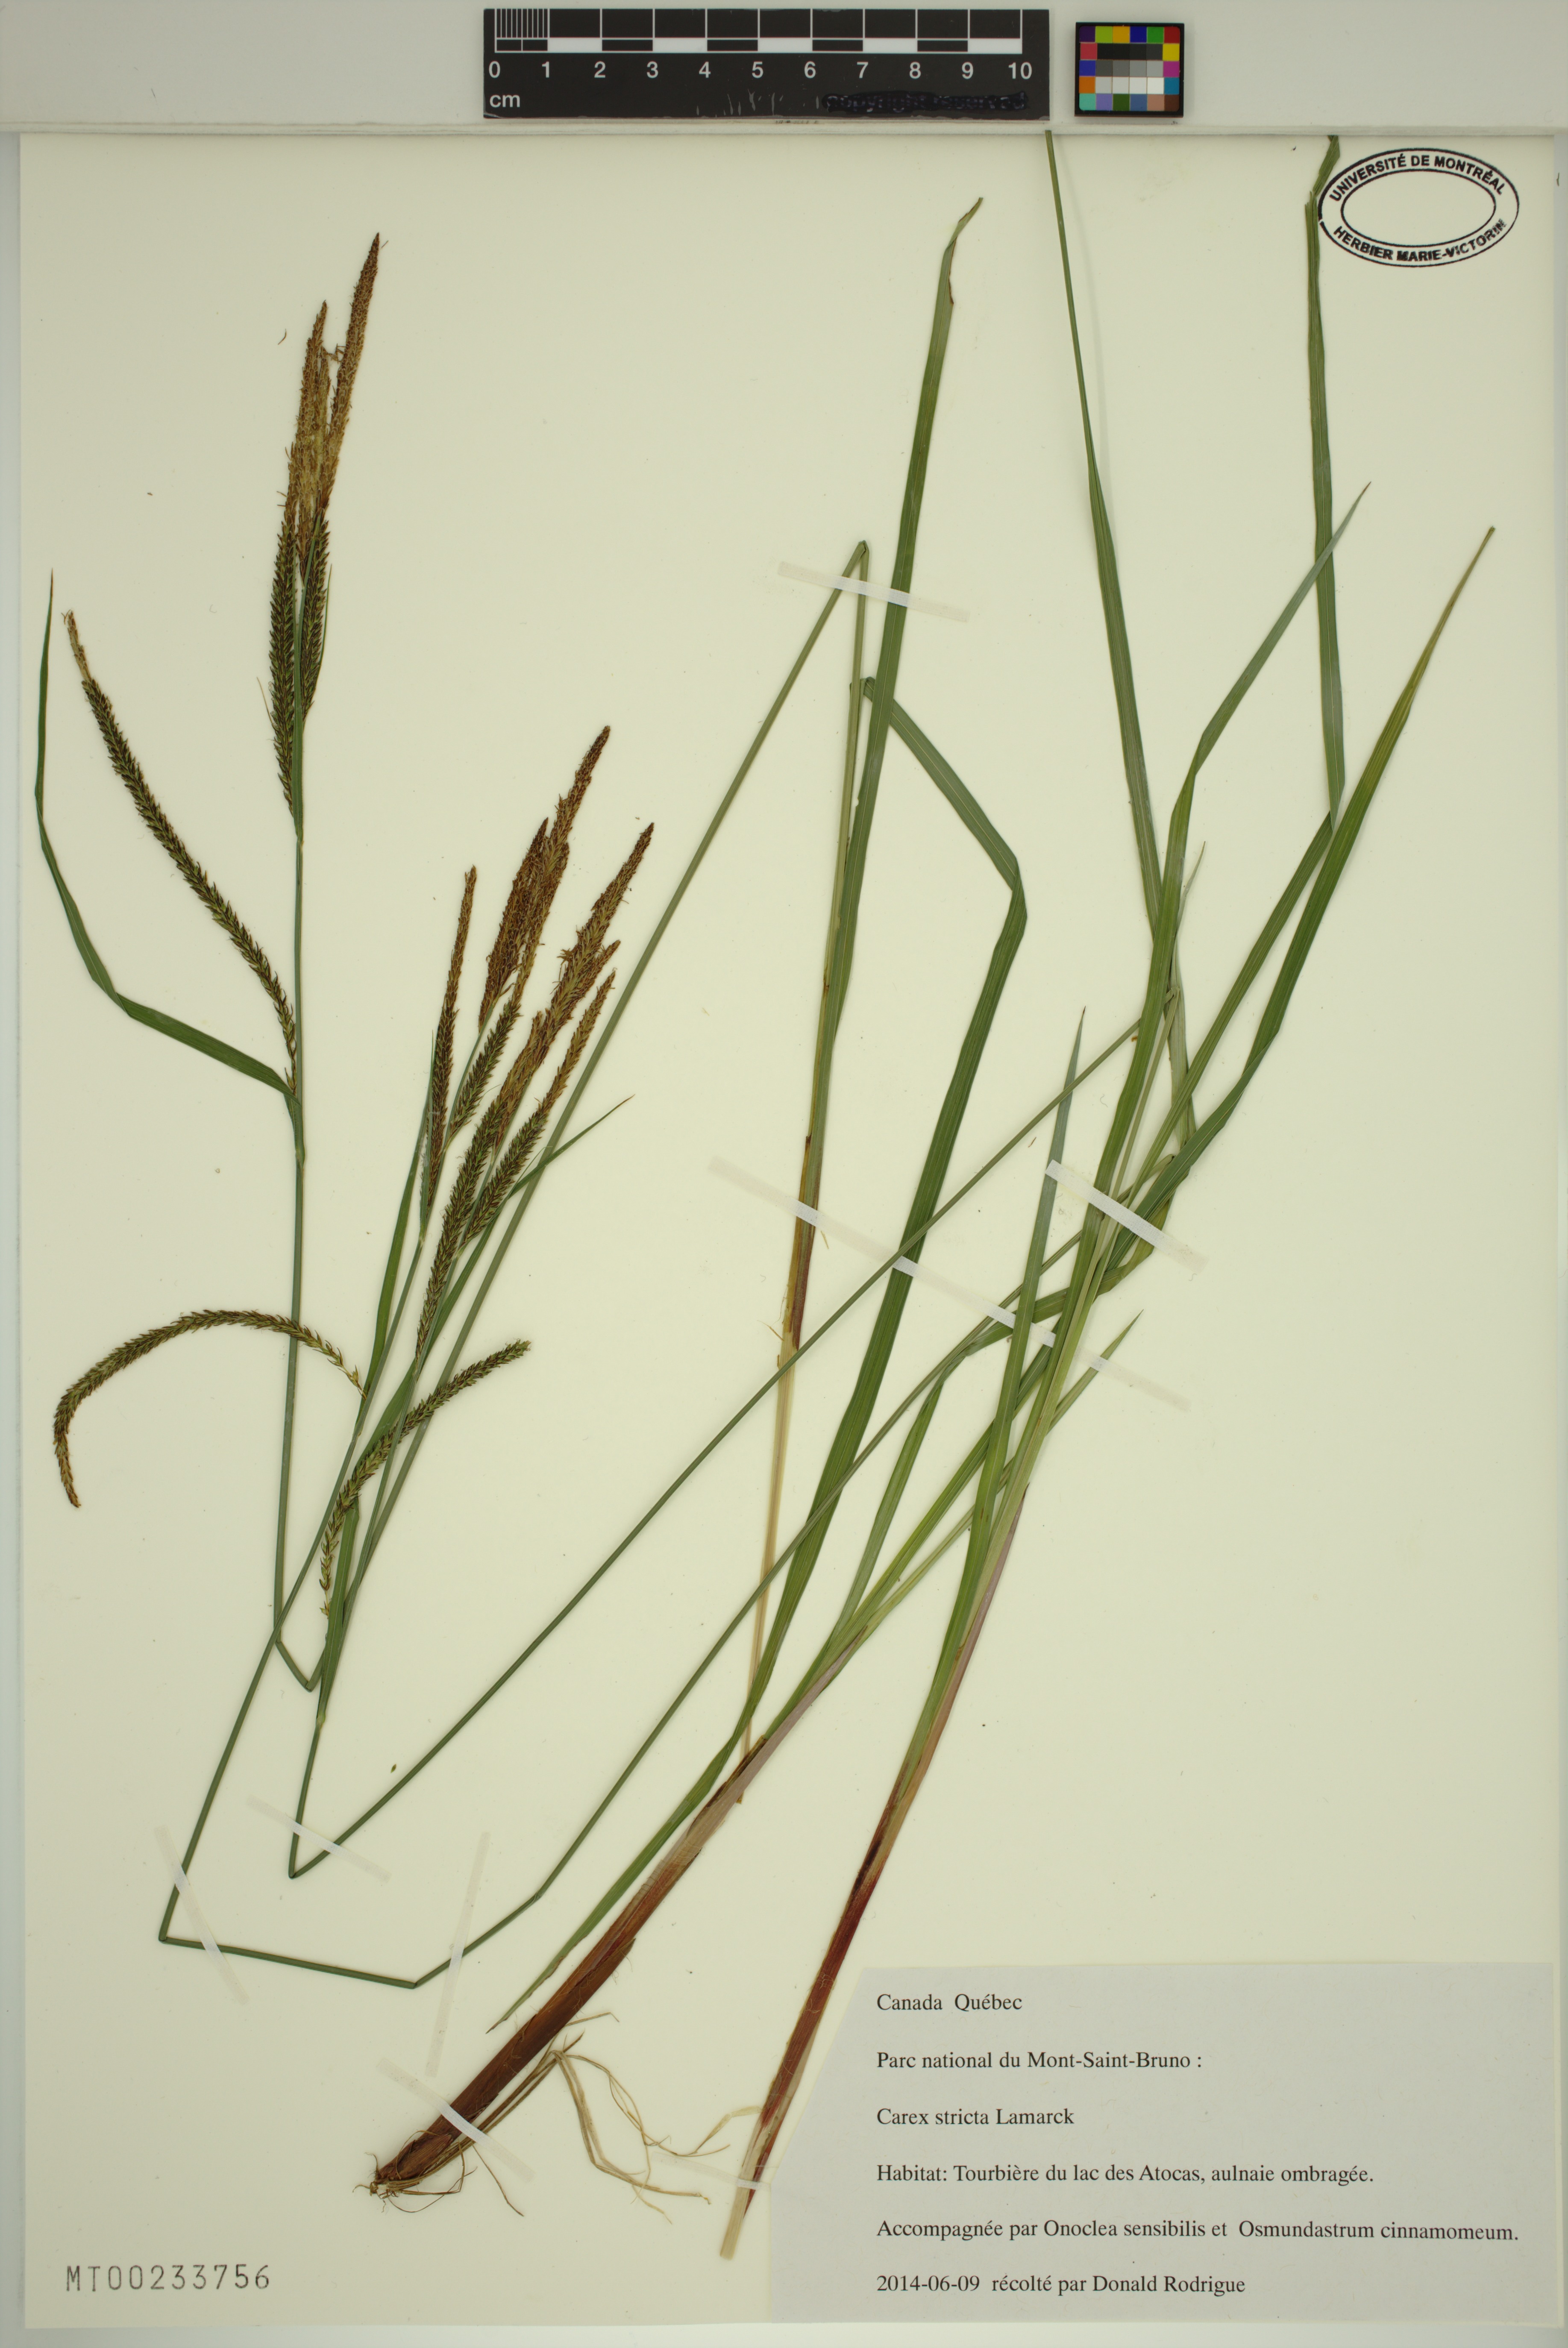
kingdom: Plantae
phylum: Tracheophyta
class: Liliopsida
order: Poales
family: Cyperaceae
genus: Carex
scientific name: Carex stricta
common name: Hummock sedge
